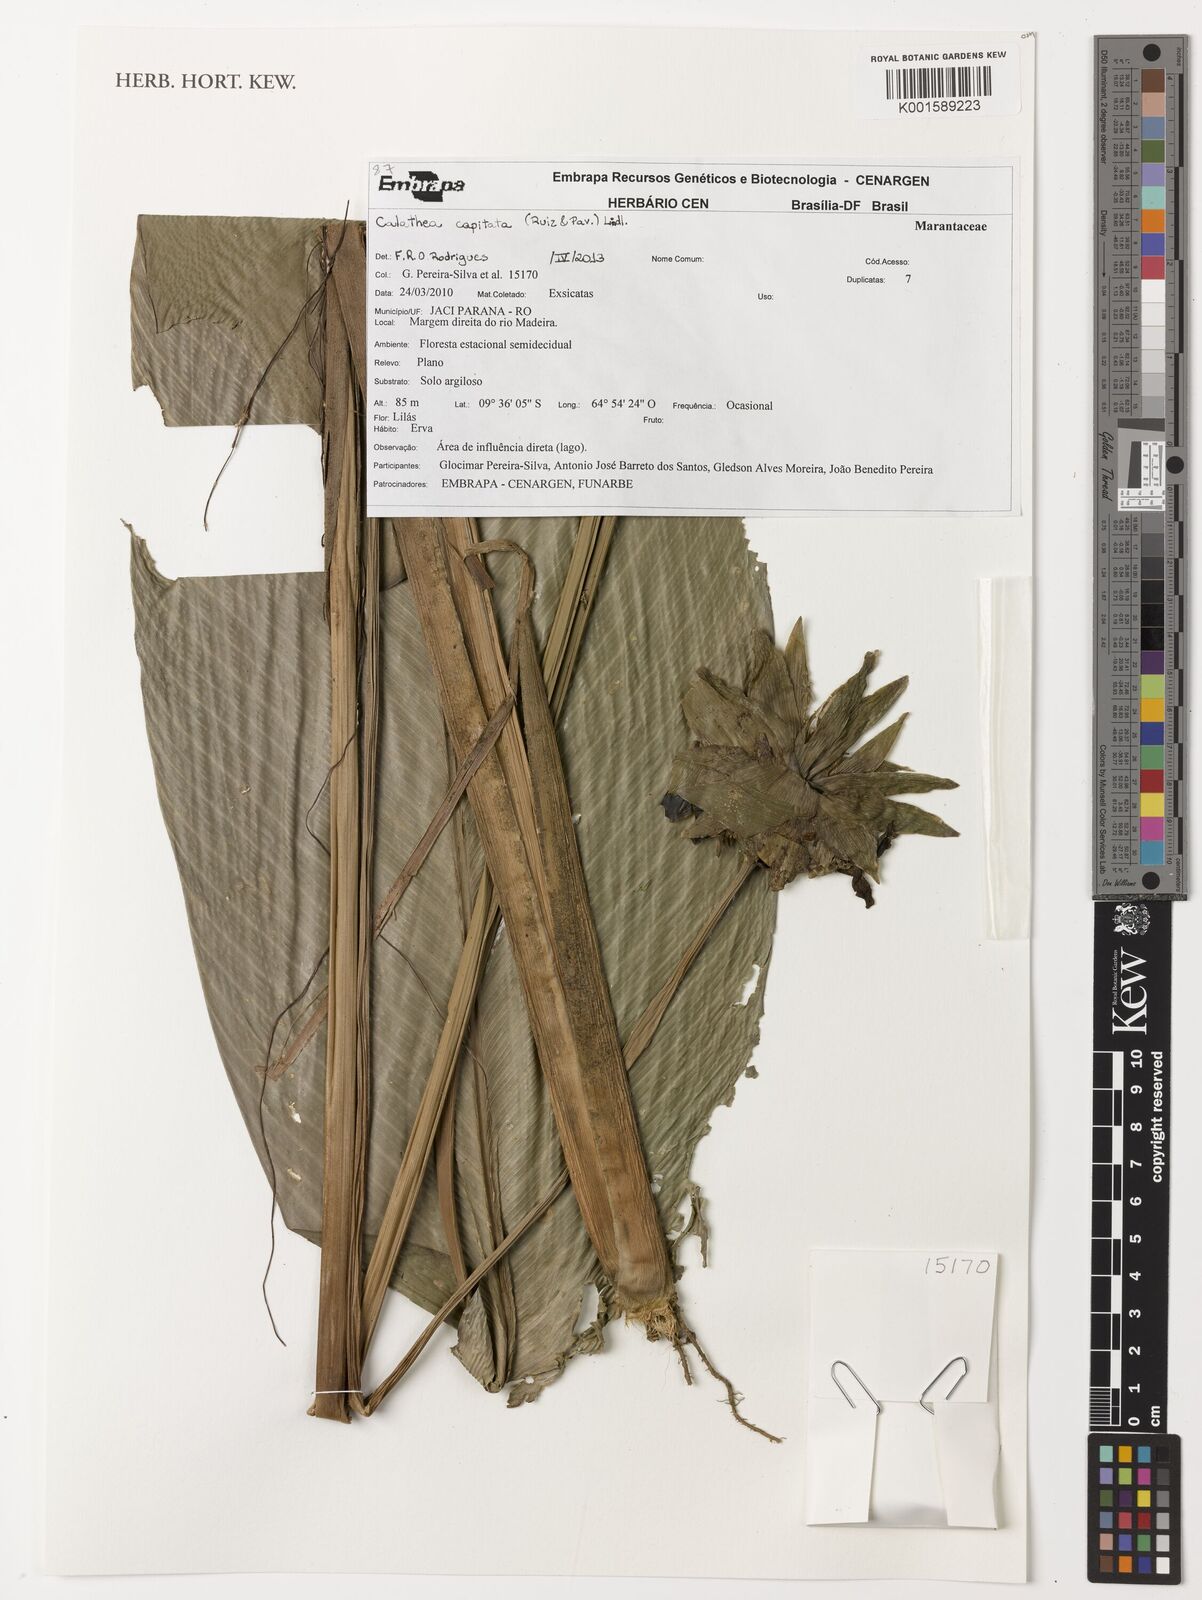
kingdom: Plantae
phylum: Tracheophyta
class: Liliopsida
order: Zingiberales
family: Marantaceae
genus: Goeppertia
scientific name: Goeppertia capitata
